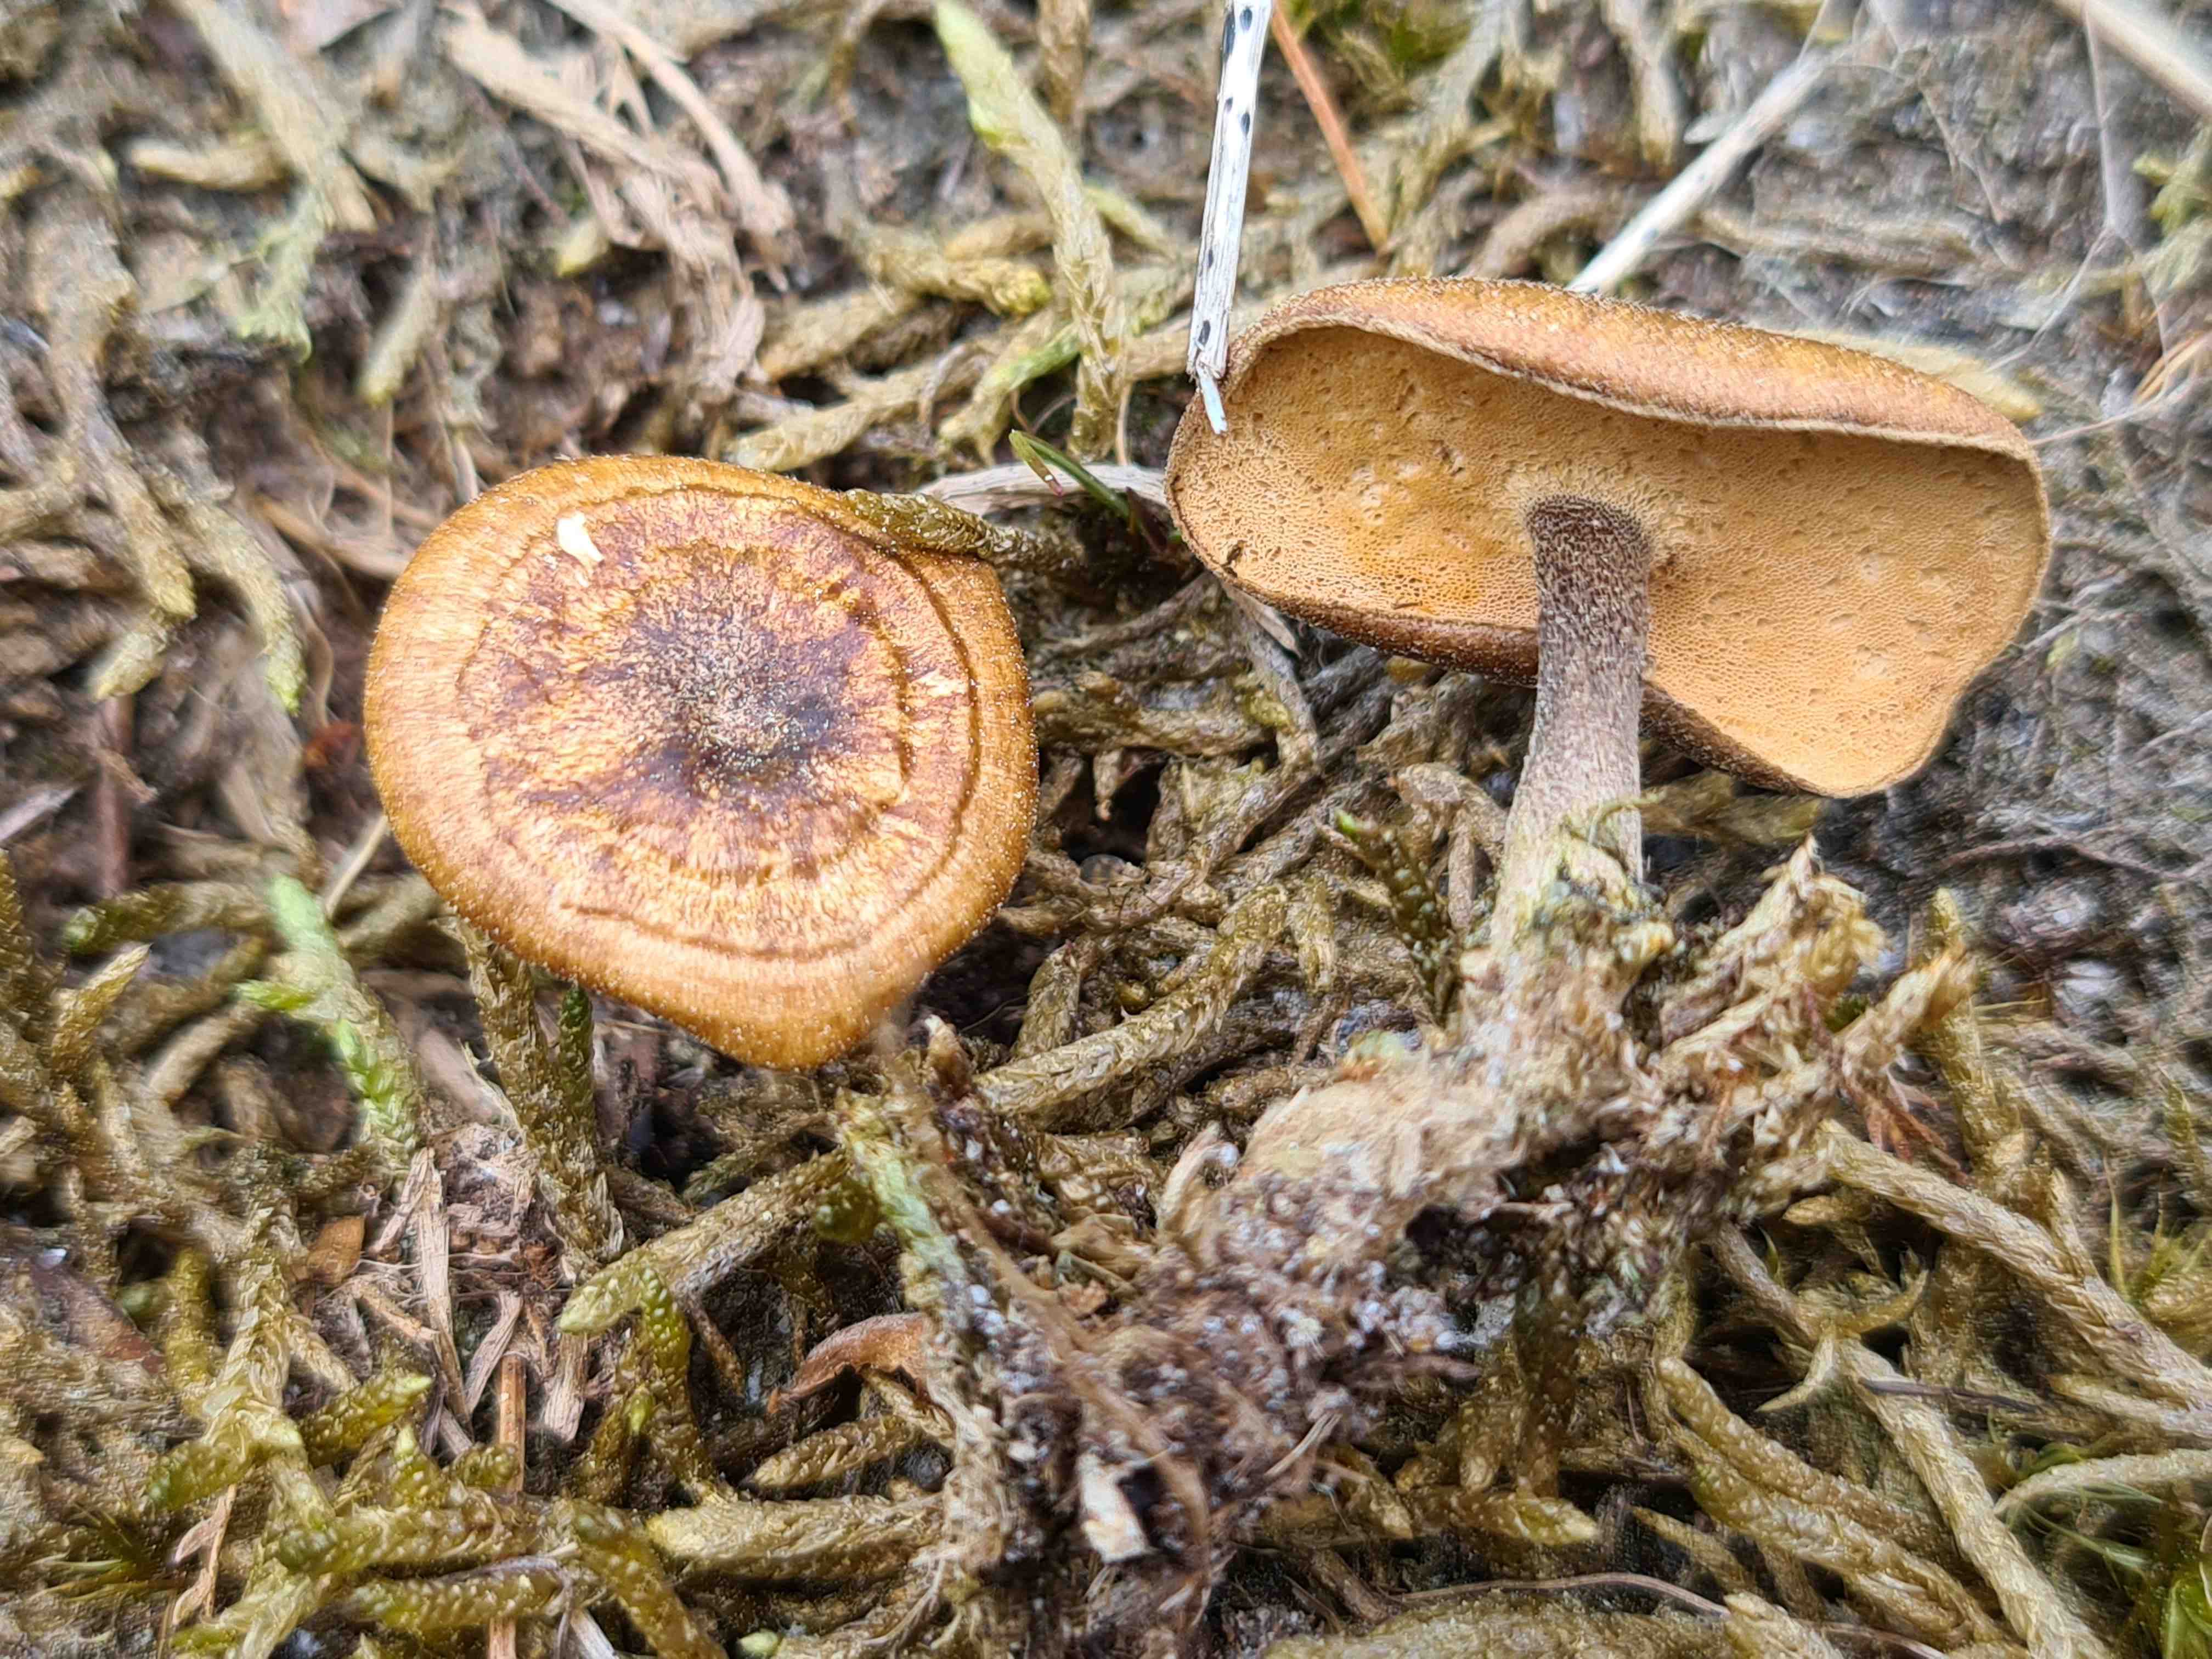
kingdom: Fungi
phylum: Basidiomycota
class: Agaricomycetes
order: Polyporales
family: Polyporaceae
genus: Lentinus
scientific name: Lentinus substrictus
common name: forårs-stilkporesvamp
